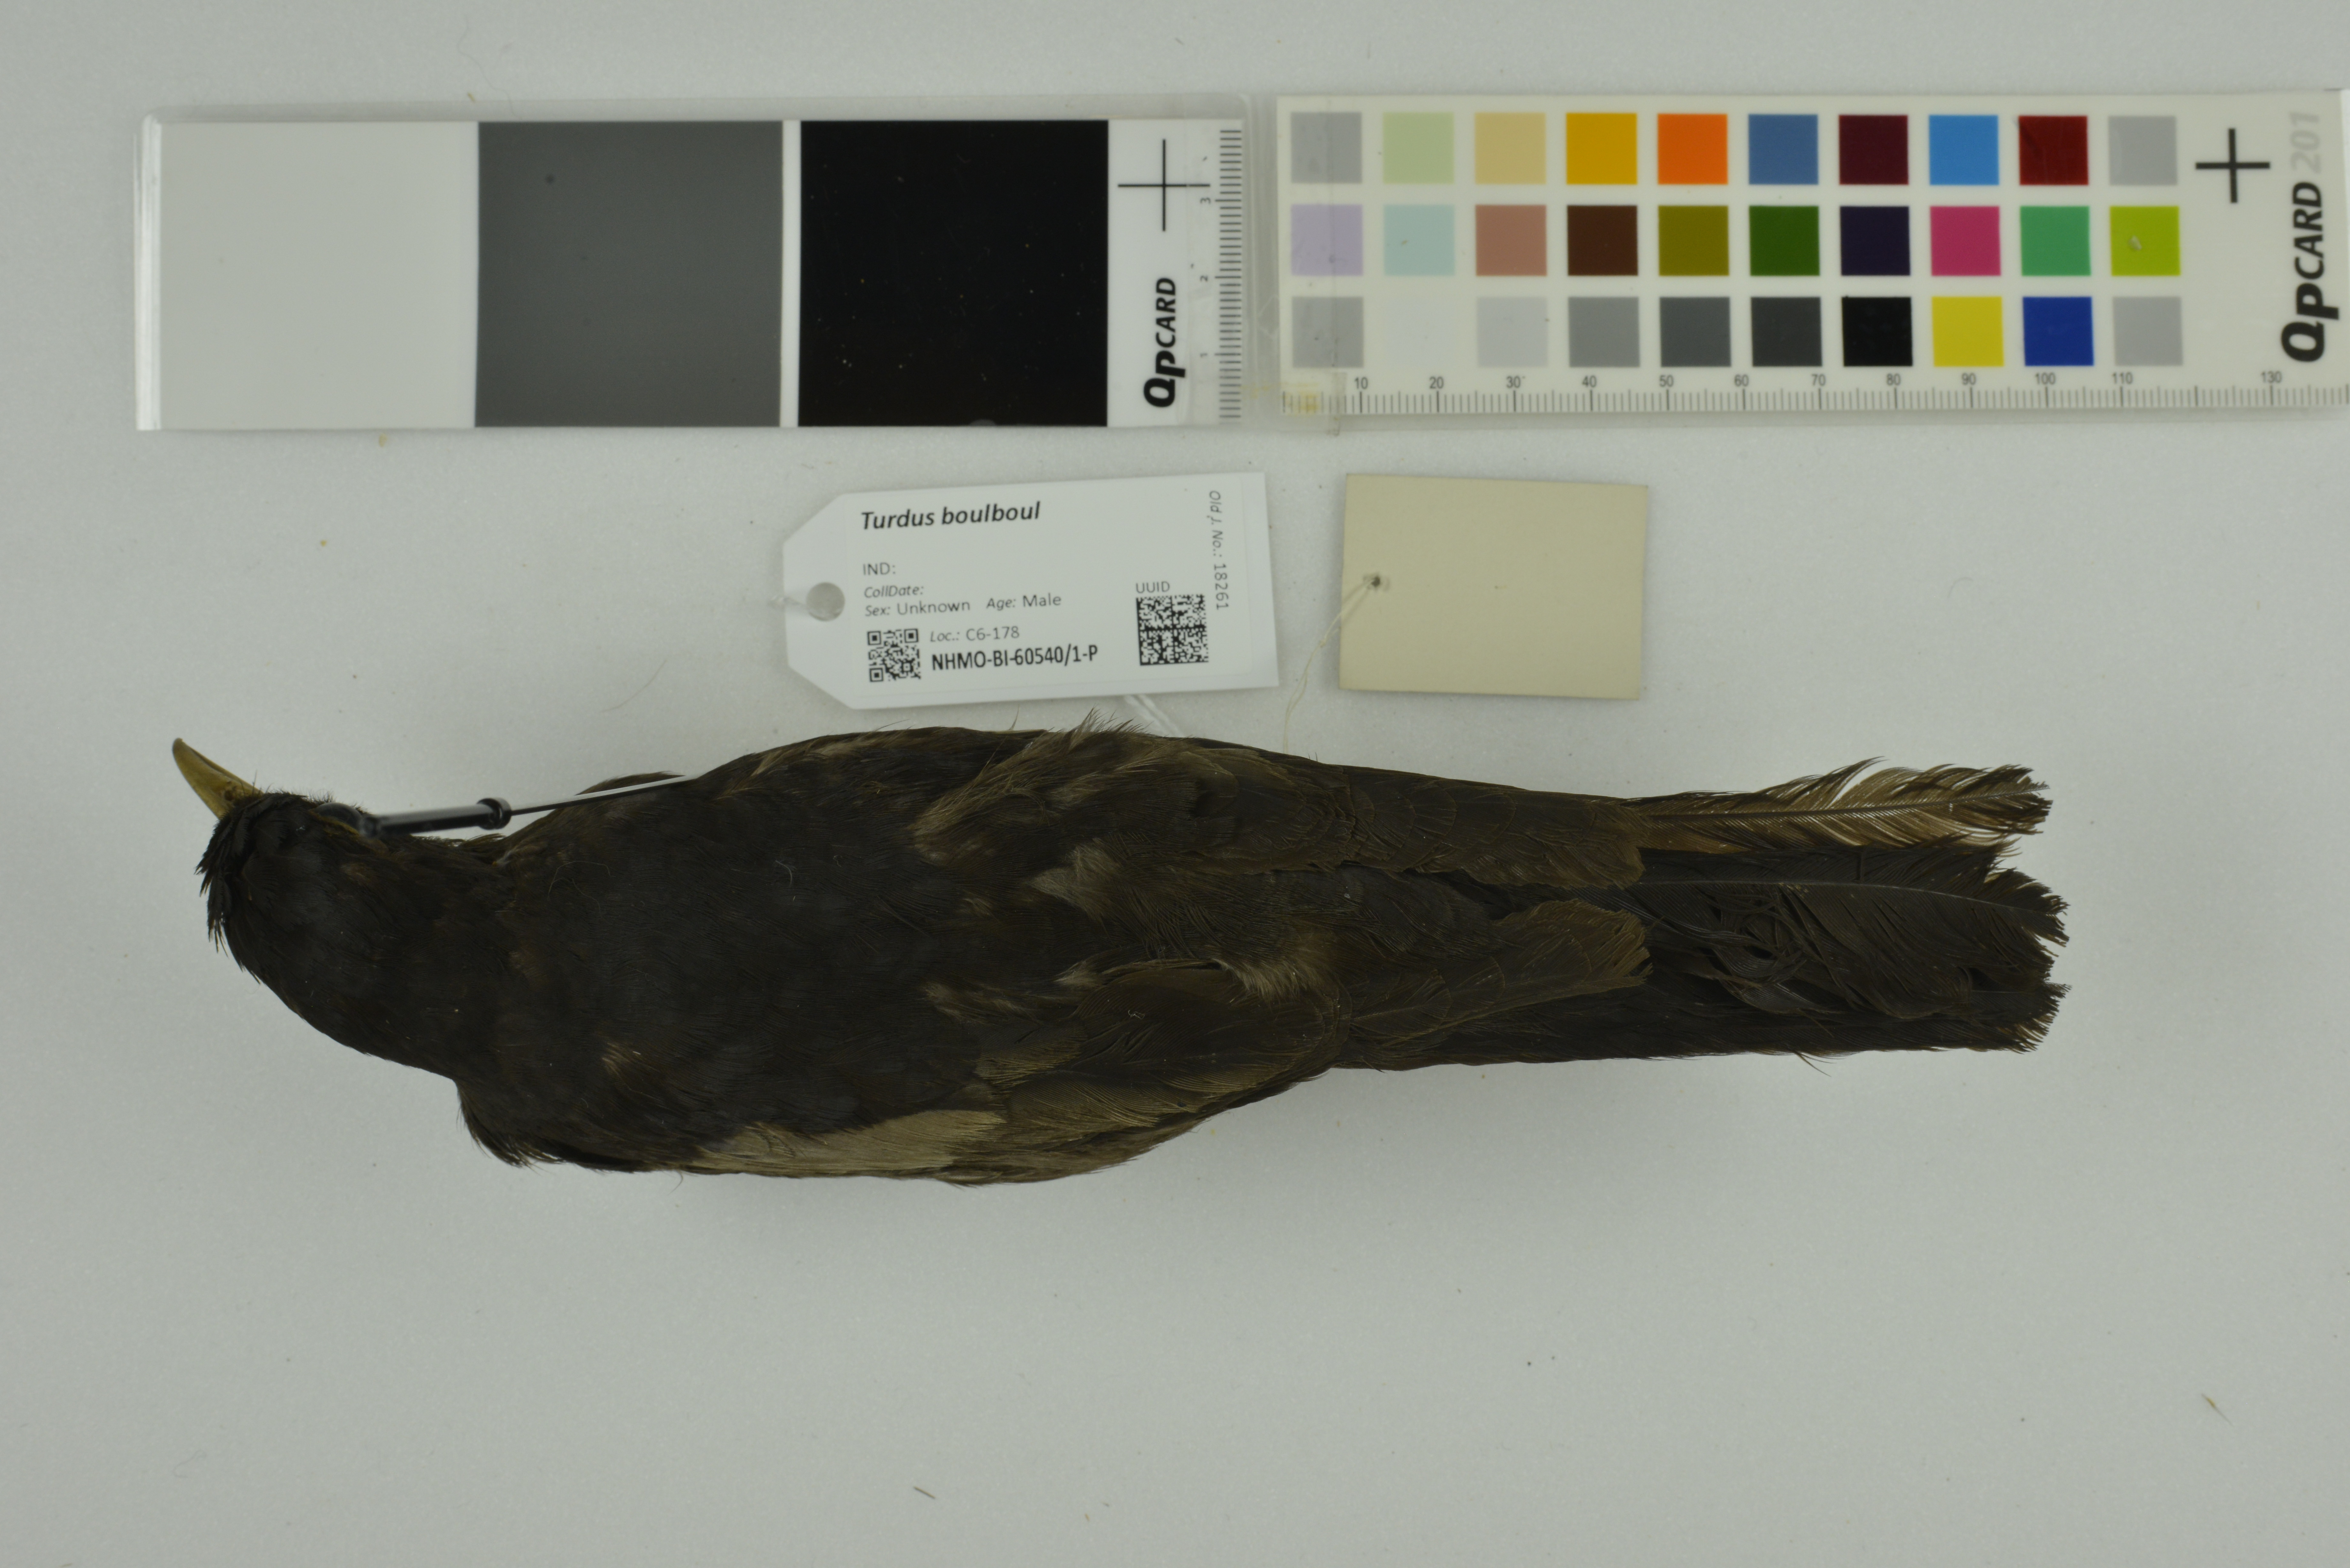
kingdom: Animalia
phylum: Chordata
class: Aves
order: Passeriformes
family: Turdidae
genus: Turdus
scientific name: Turdus boulboul
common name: Grey-winged blackbird
